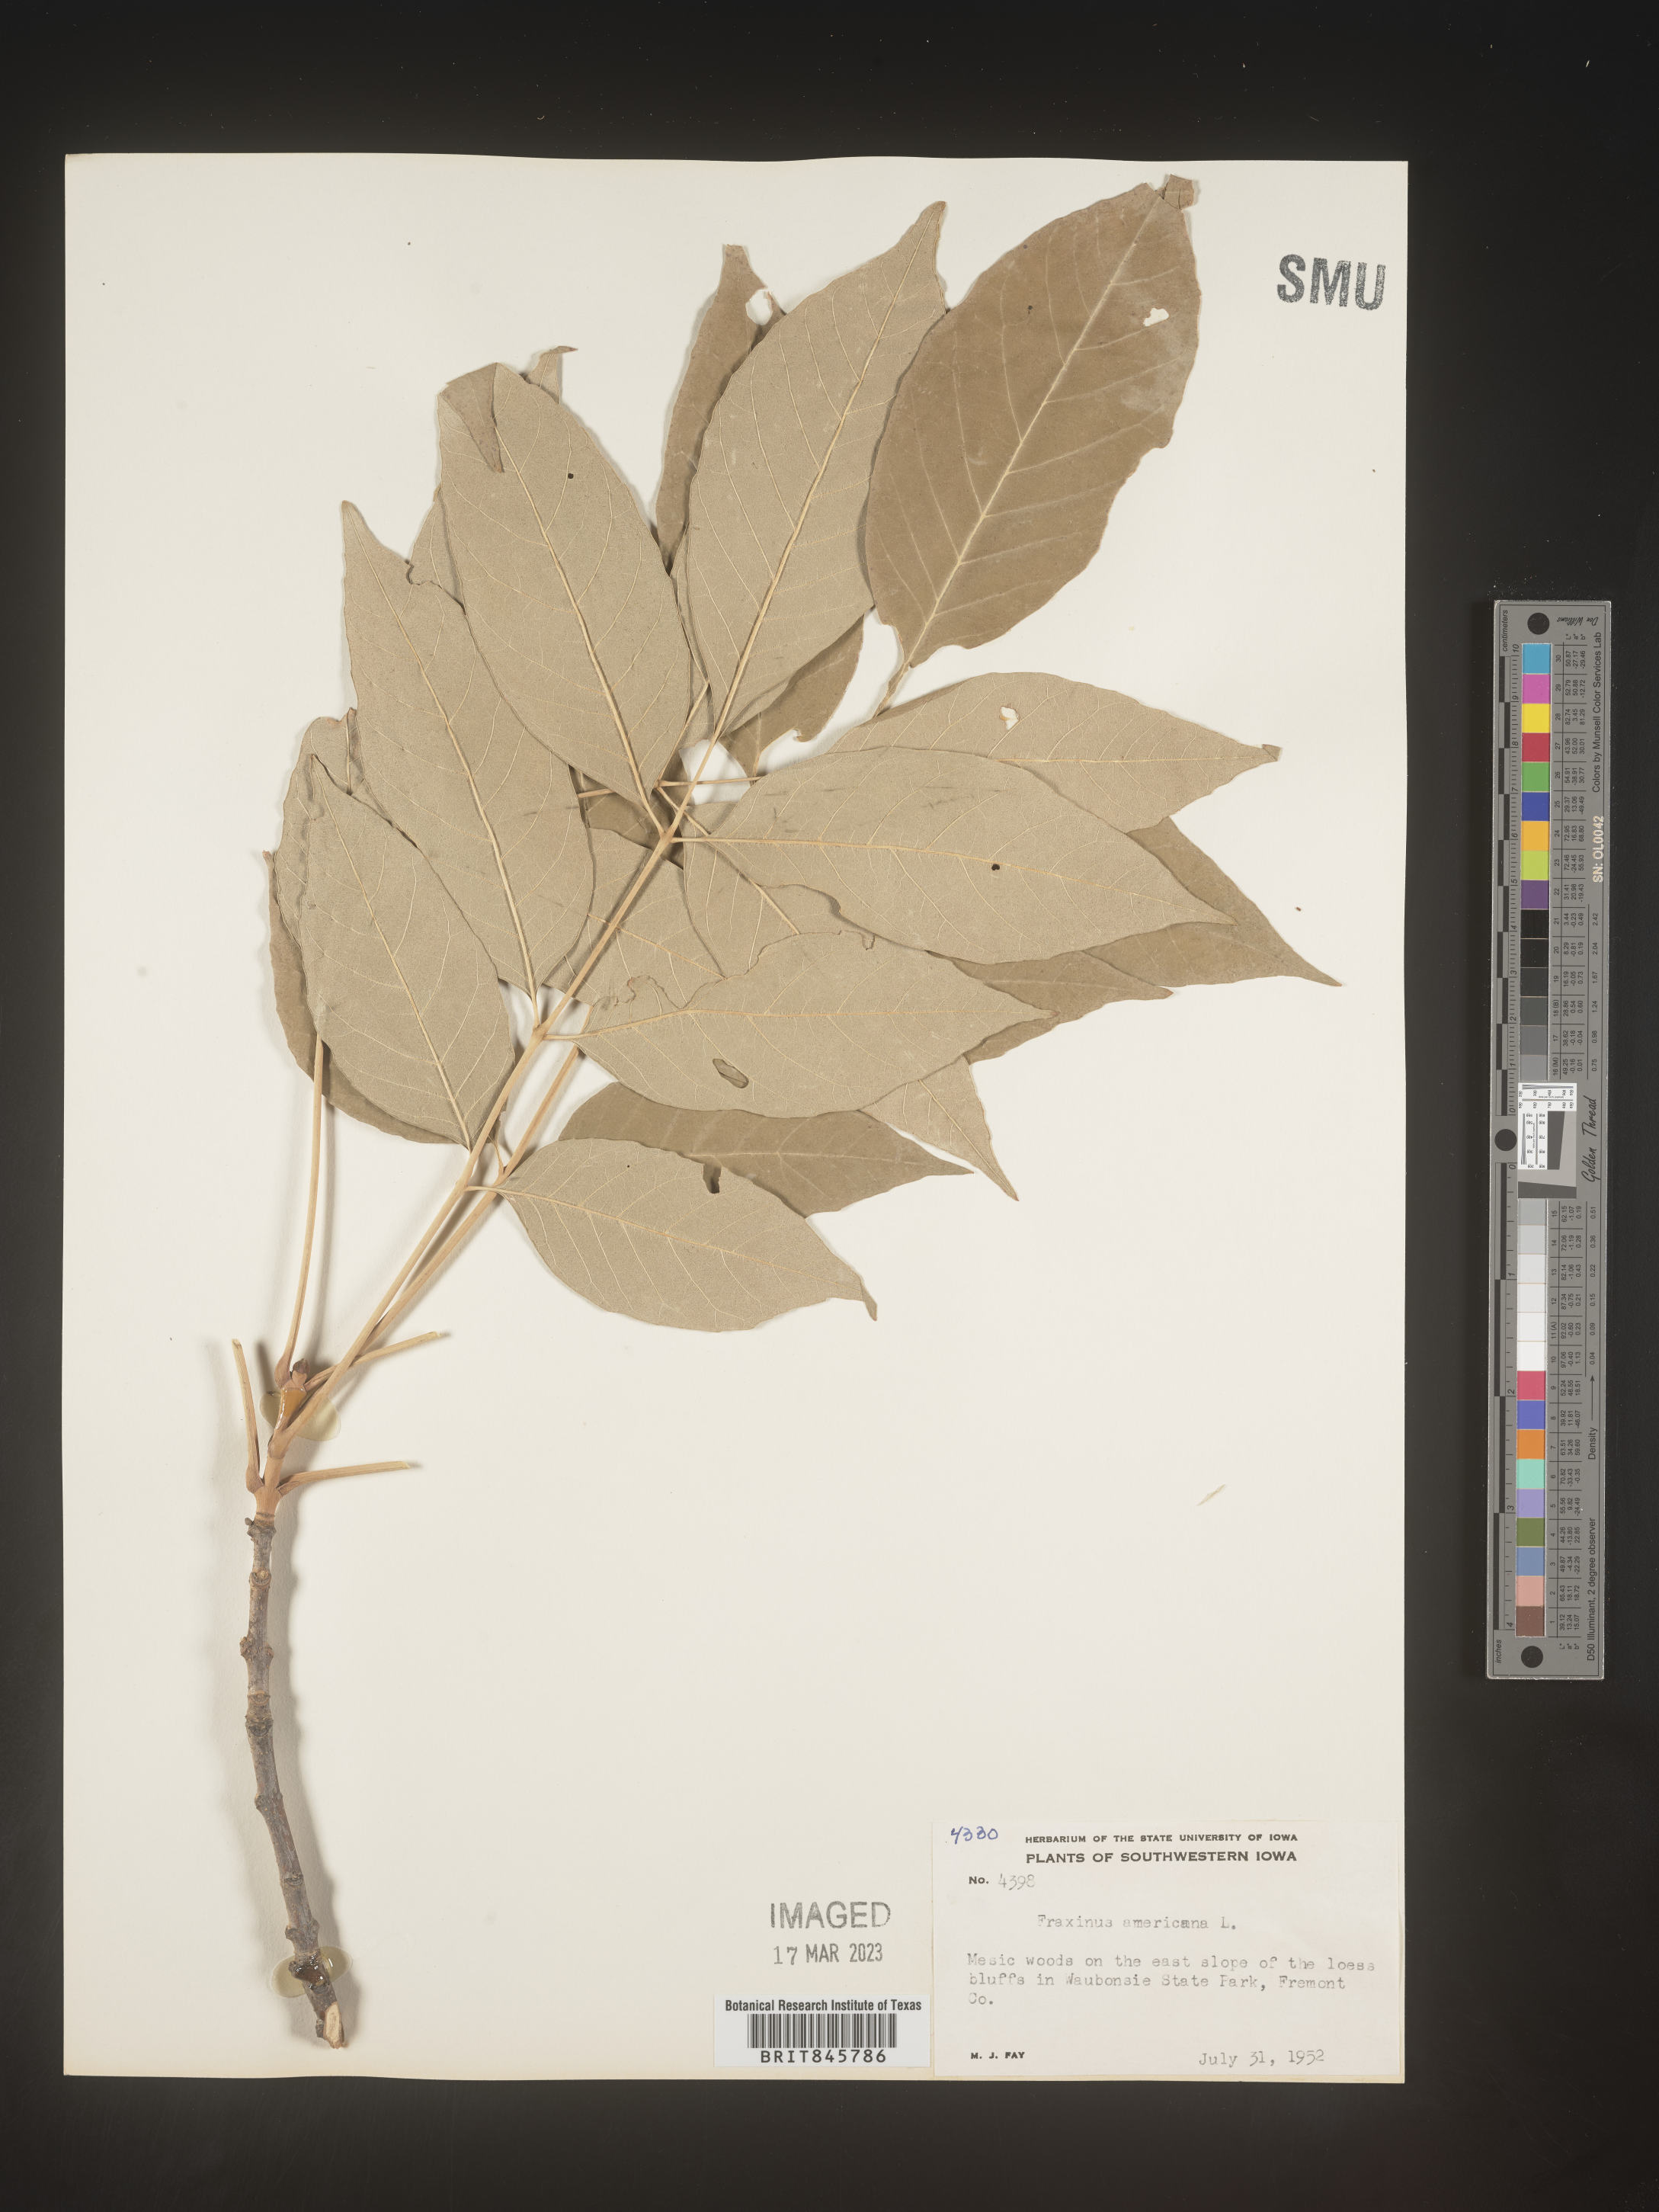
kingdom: Plantae
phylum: Tracheophyta
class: Magnoliopsida
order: Lamiales
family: Oleaceae
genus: Fraxinus
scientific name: Fraxinus americana
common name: White ash
